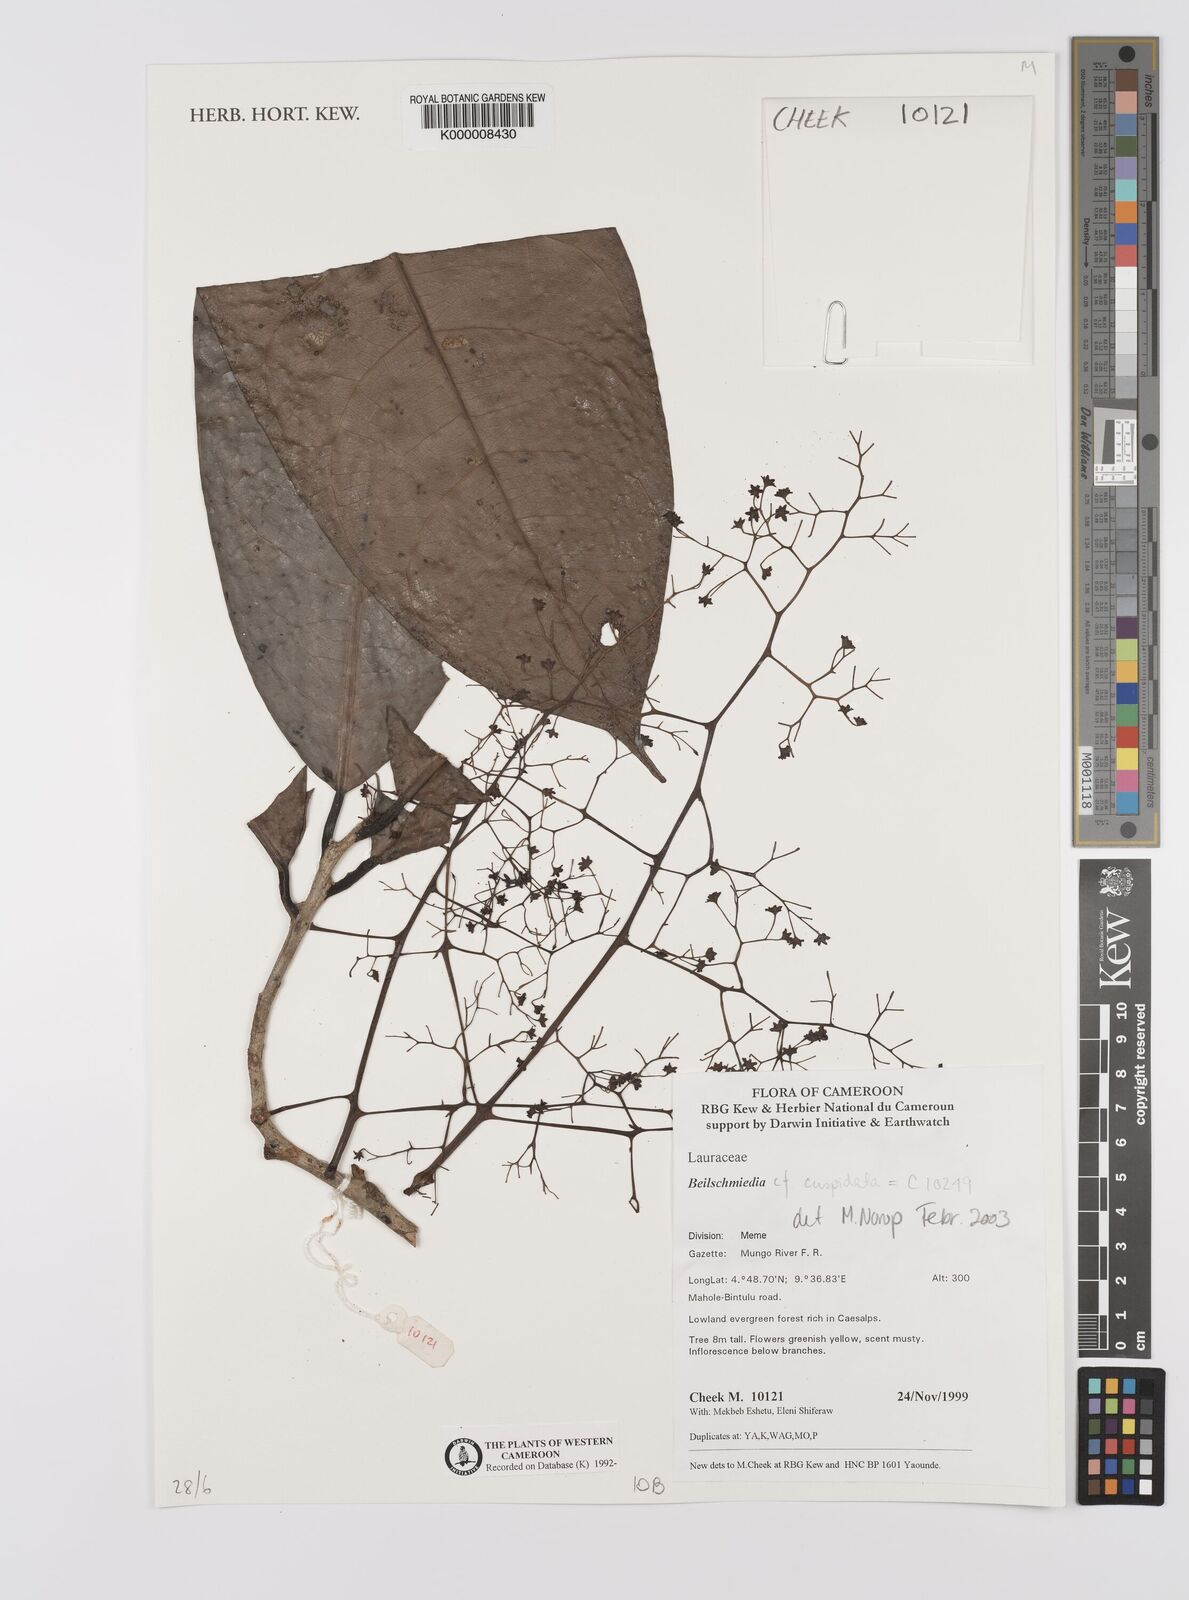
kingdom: Plantae
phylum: Tracheophyta
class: Magnoliopsida
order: Laurales
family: Lauraceae
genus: Beilschmiedia
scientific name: Beilschmiedia cuspidata
